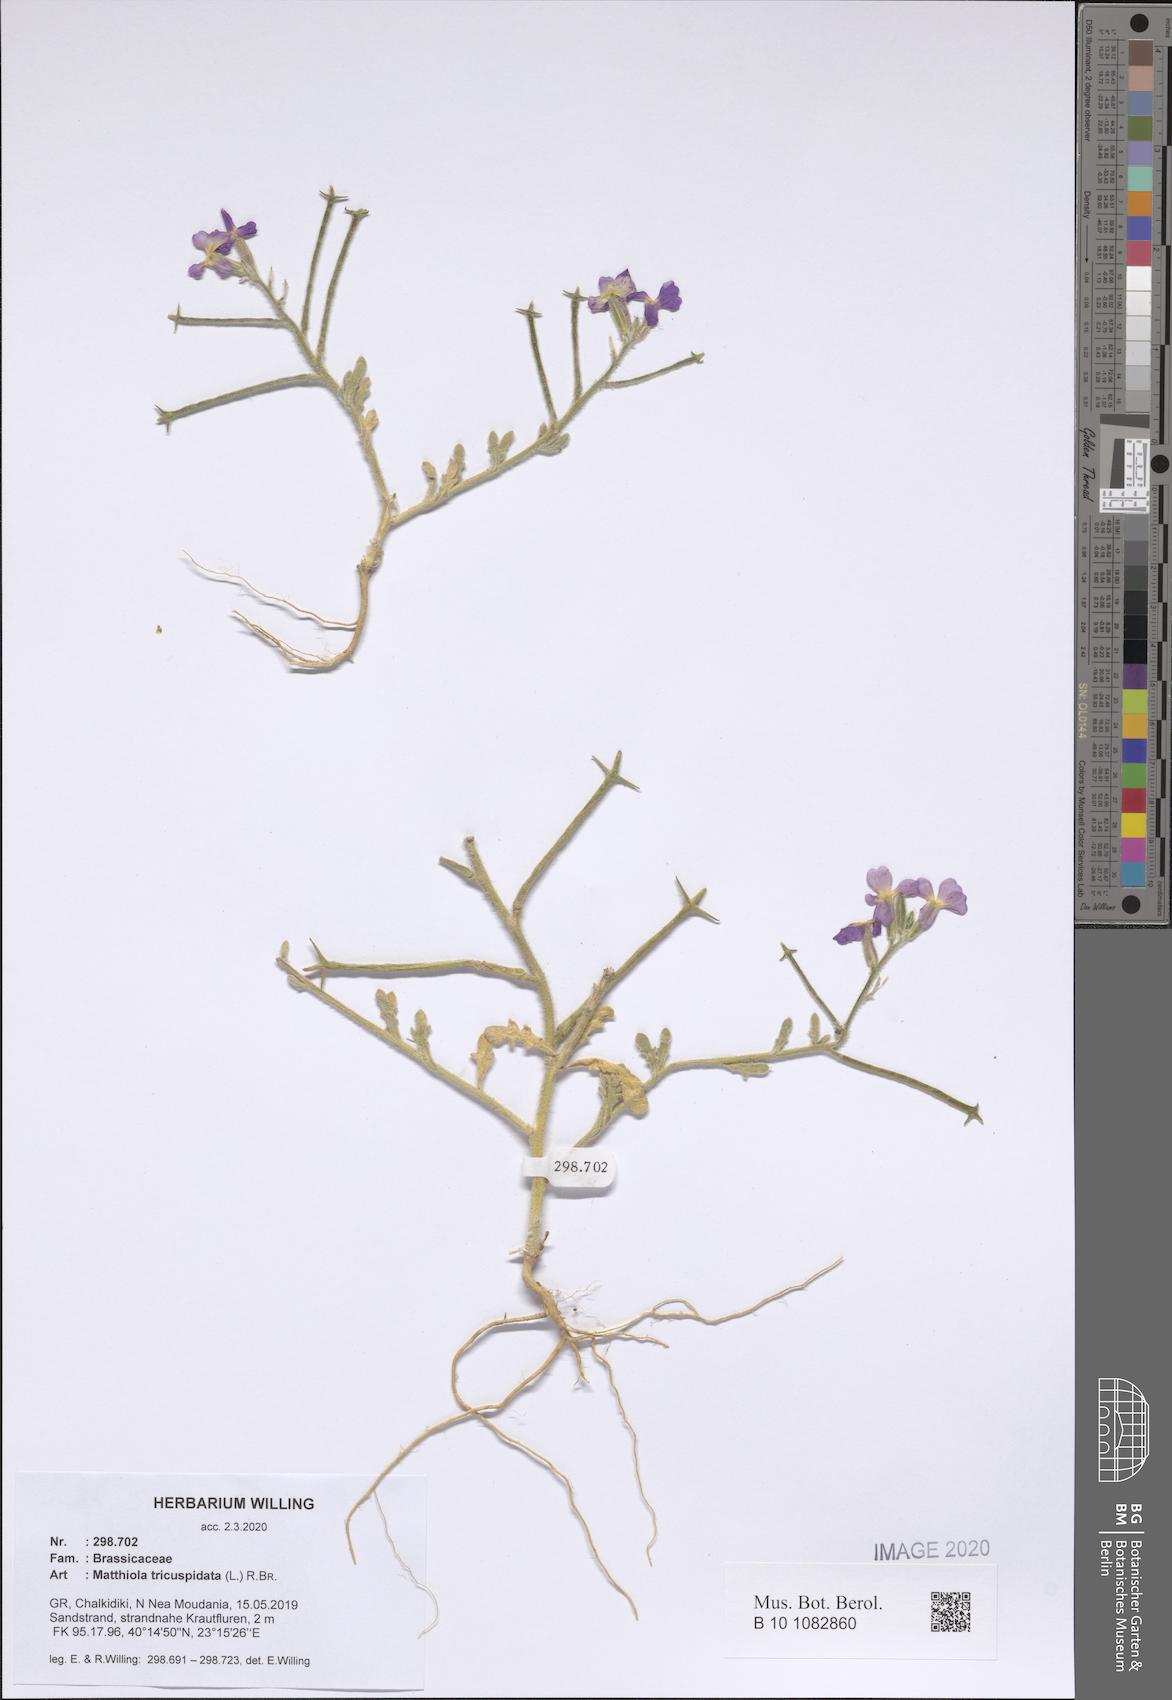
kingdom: Plantae
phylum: Tracheophyta
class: Magnoliopsida
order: Brassicales
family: Brassicaceae
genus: Matthiola
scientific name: Matthiola tricuspidata
